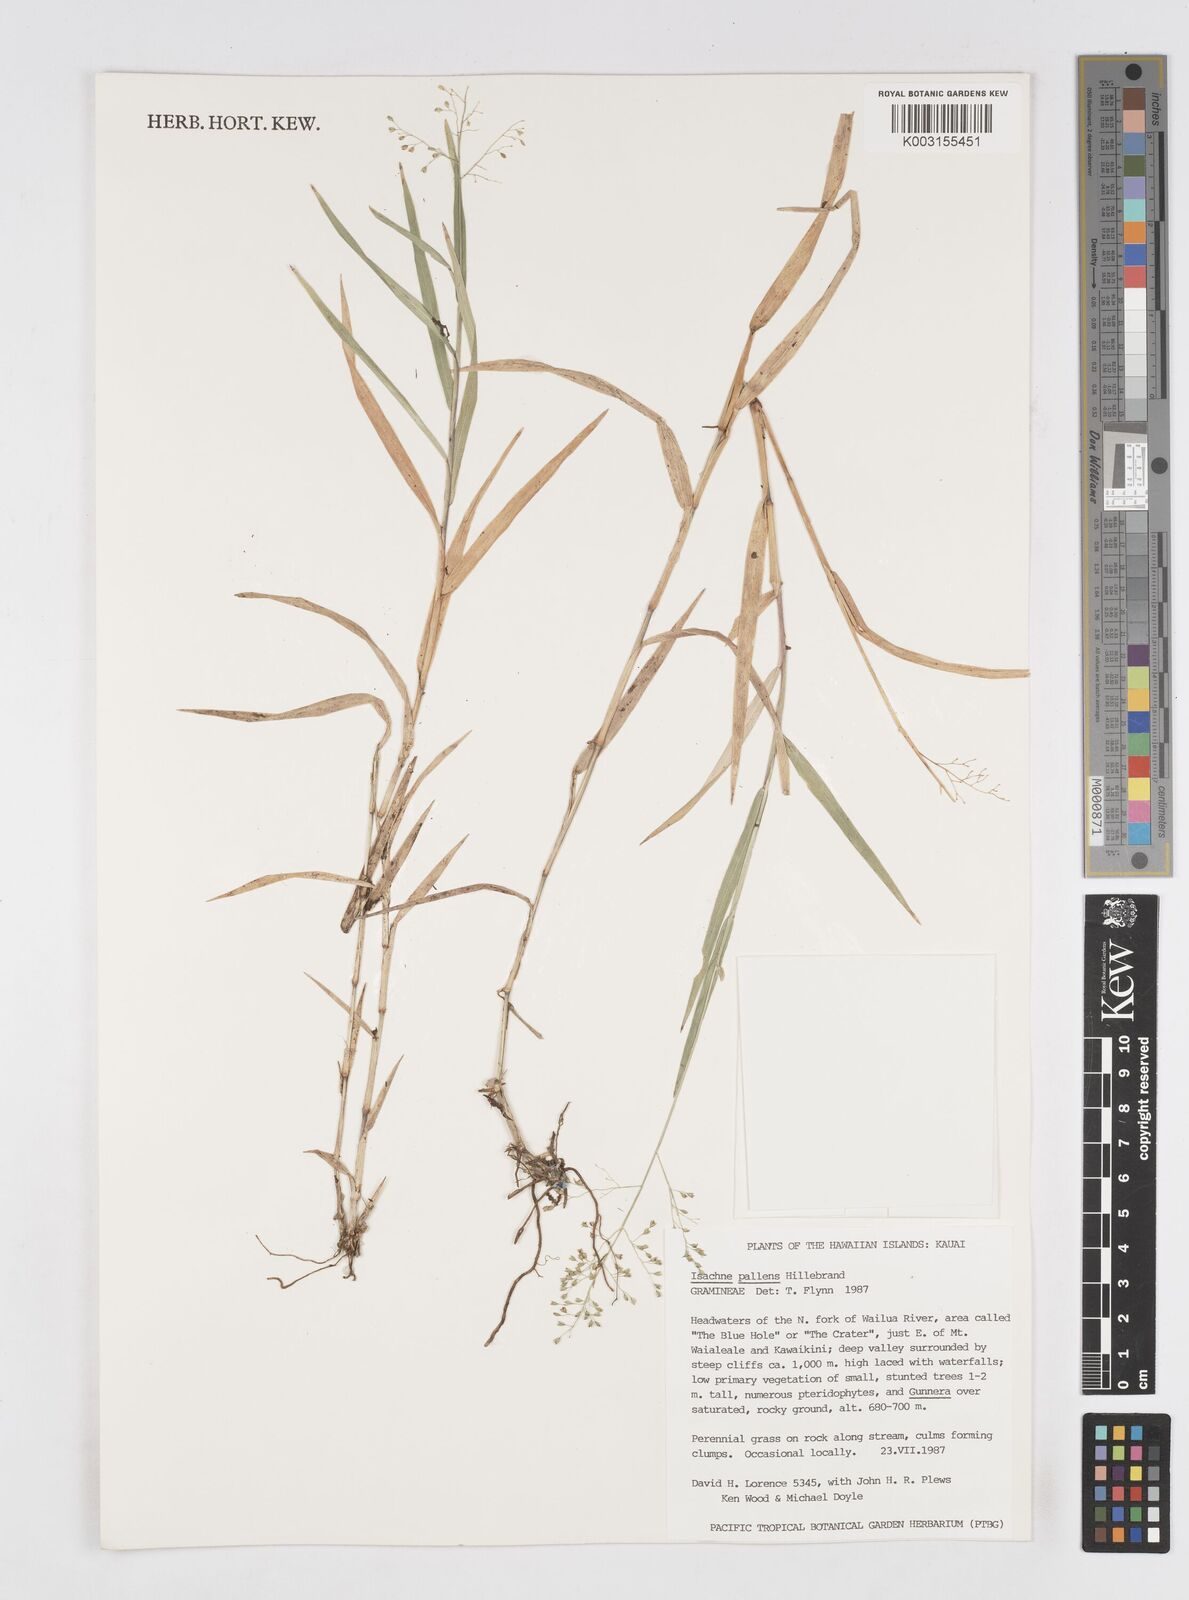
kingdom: Plantae
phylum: Tracheophyta
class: Liliopsida
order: Poales
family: Poaceae
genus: Isachne
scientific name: Isachne pallens
